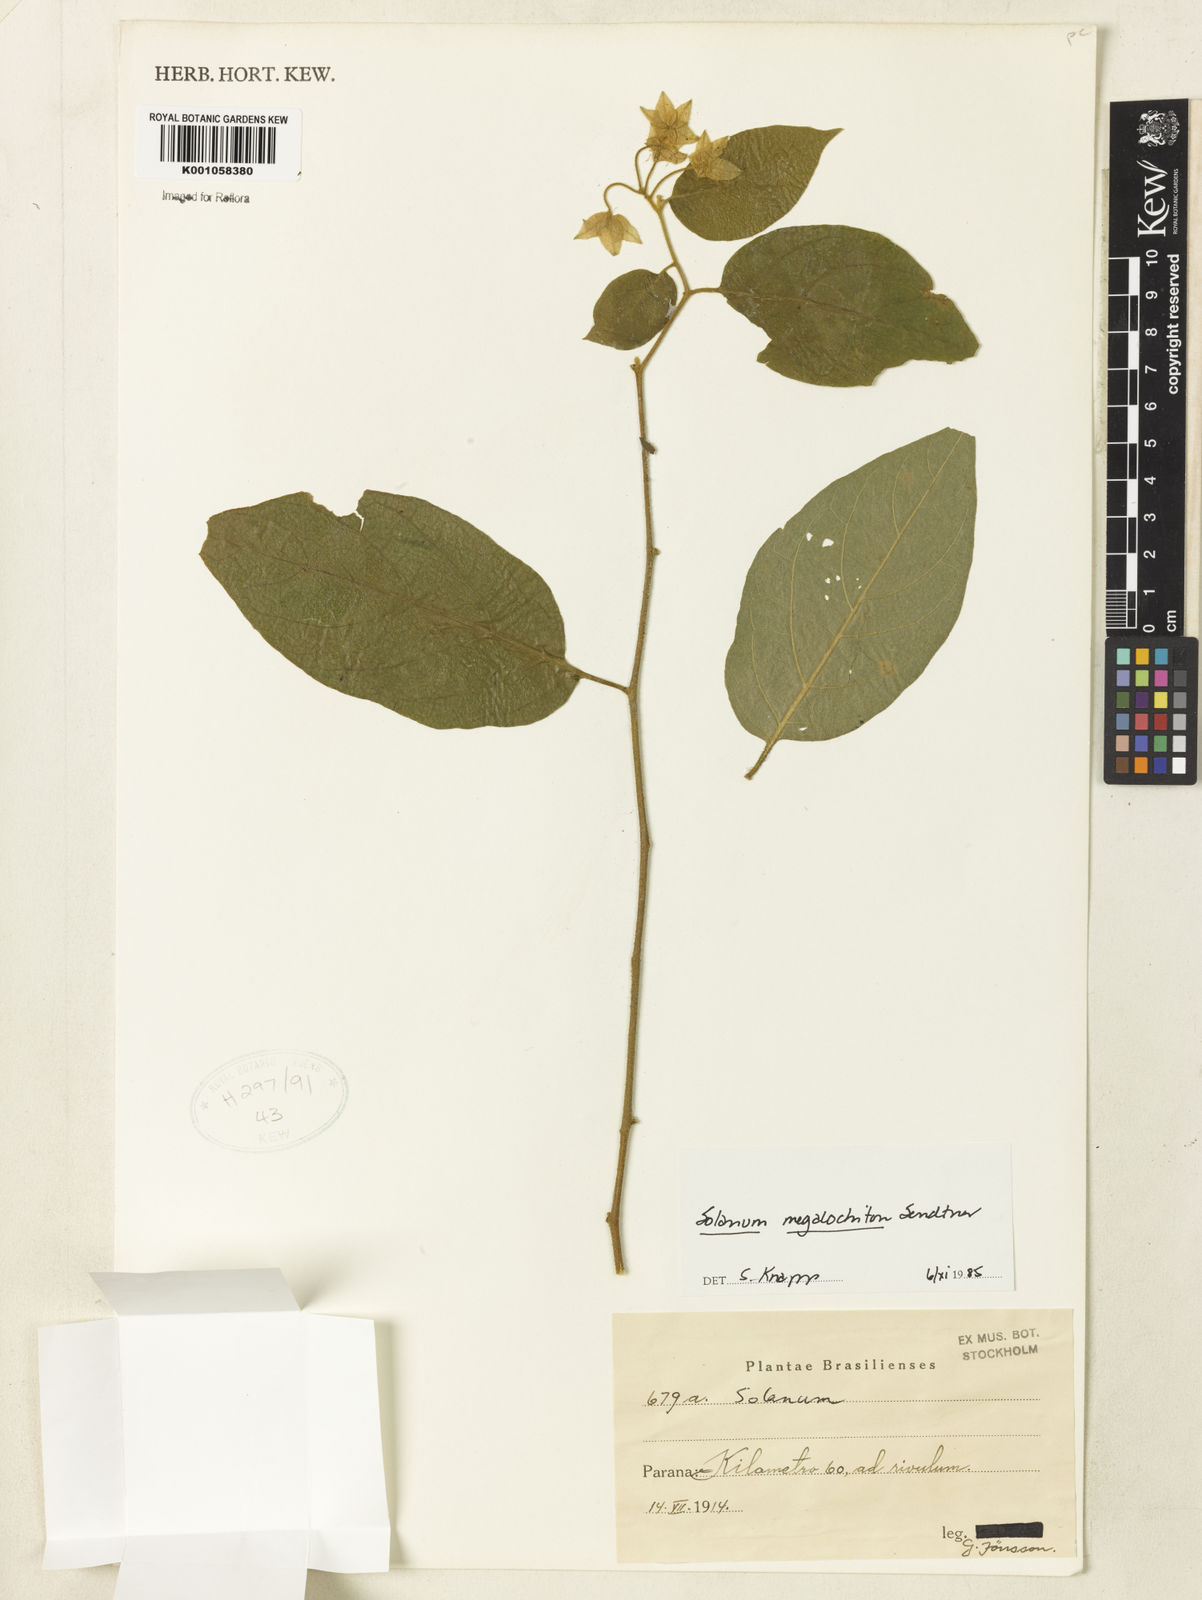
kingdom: Plantae
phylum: Tracheophyta
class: Magnoliopsida
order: Solanales
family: Solanaceae
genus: Solanum
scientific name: Solanum didymum
